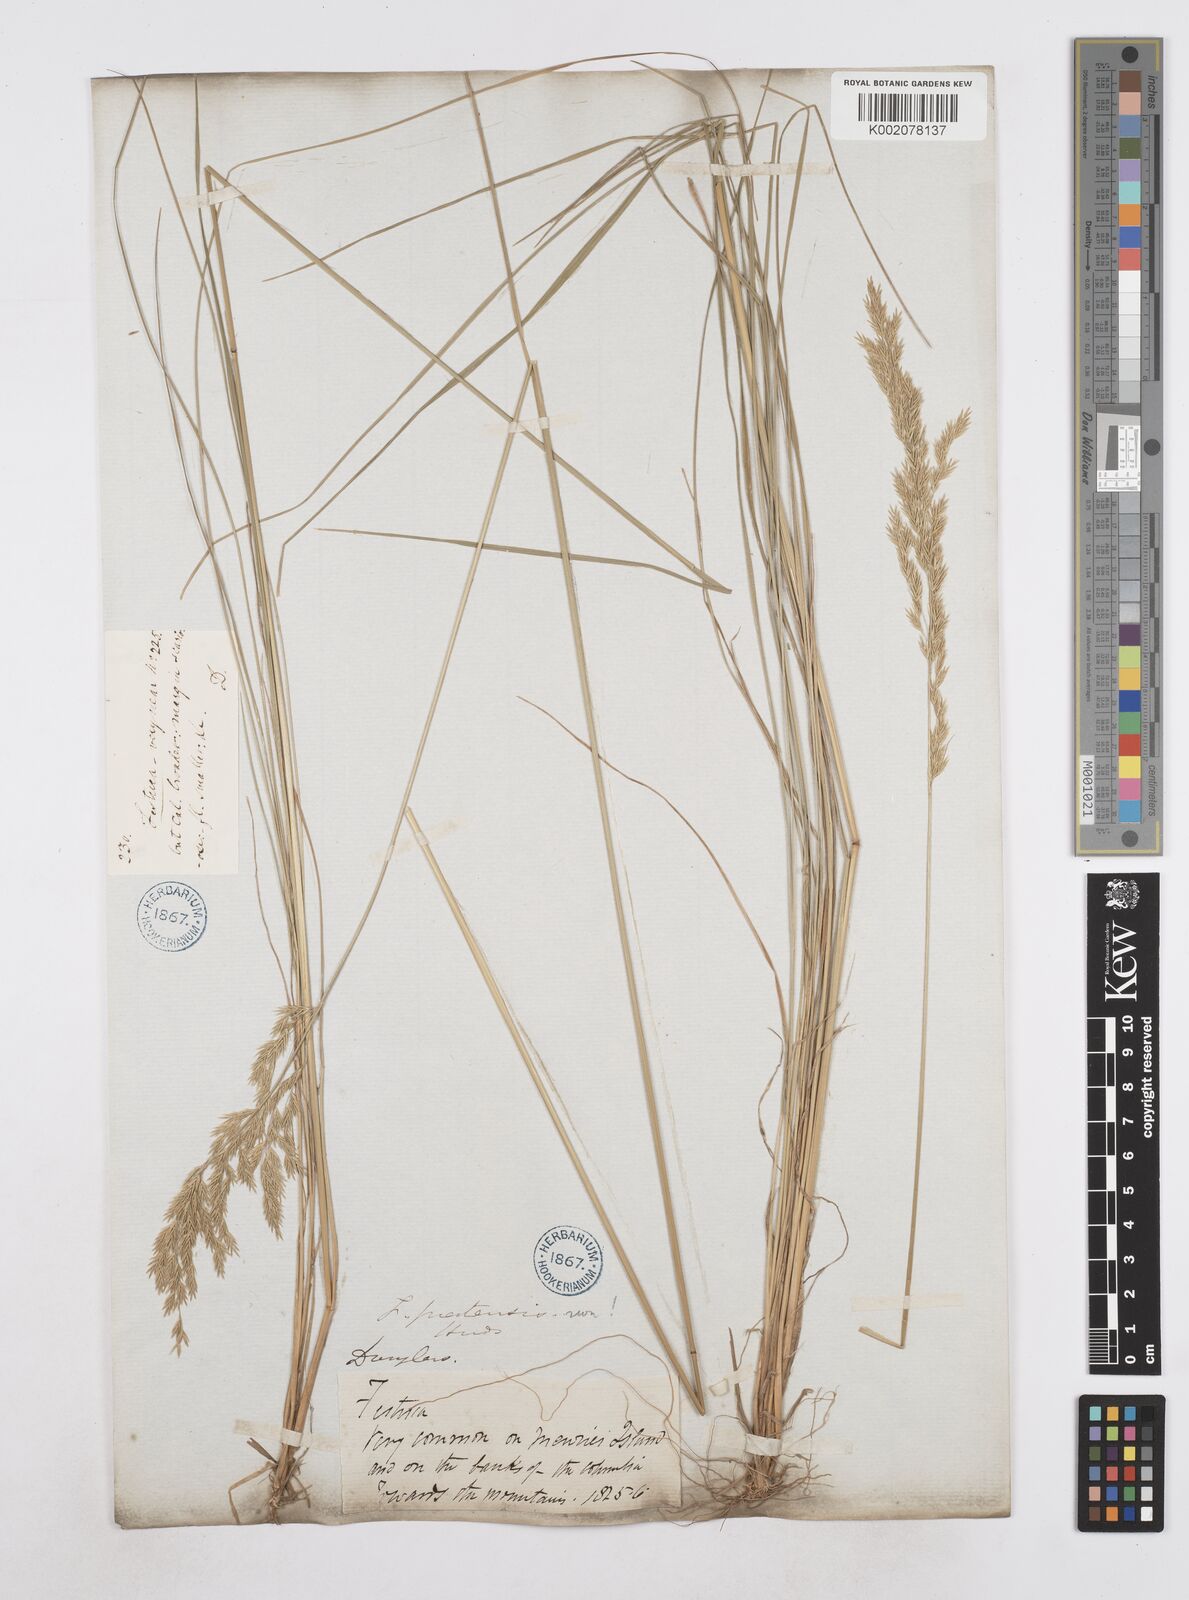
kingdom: Plantae
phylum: Tracheophyta
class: Liliopsida
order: Poales
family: Poaceae
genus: Poa
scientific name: Poa
